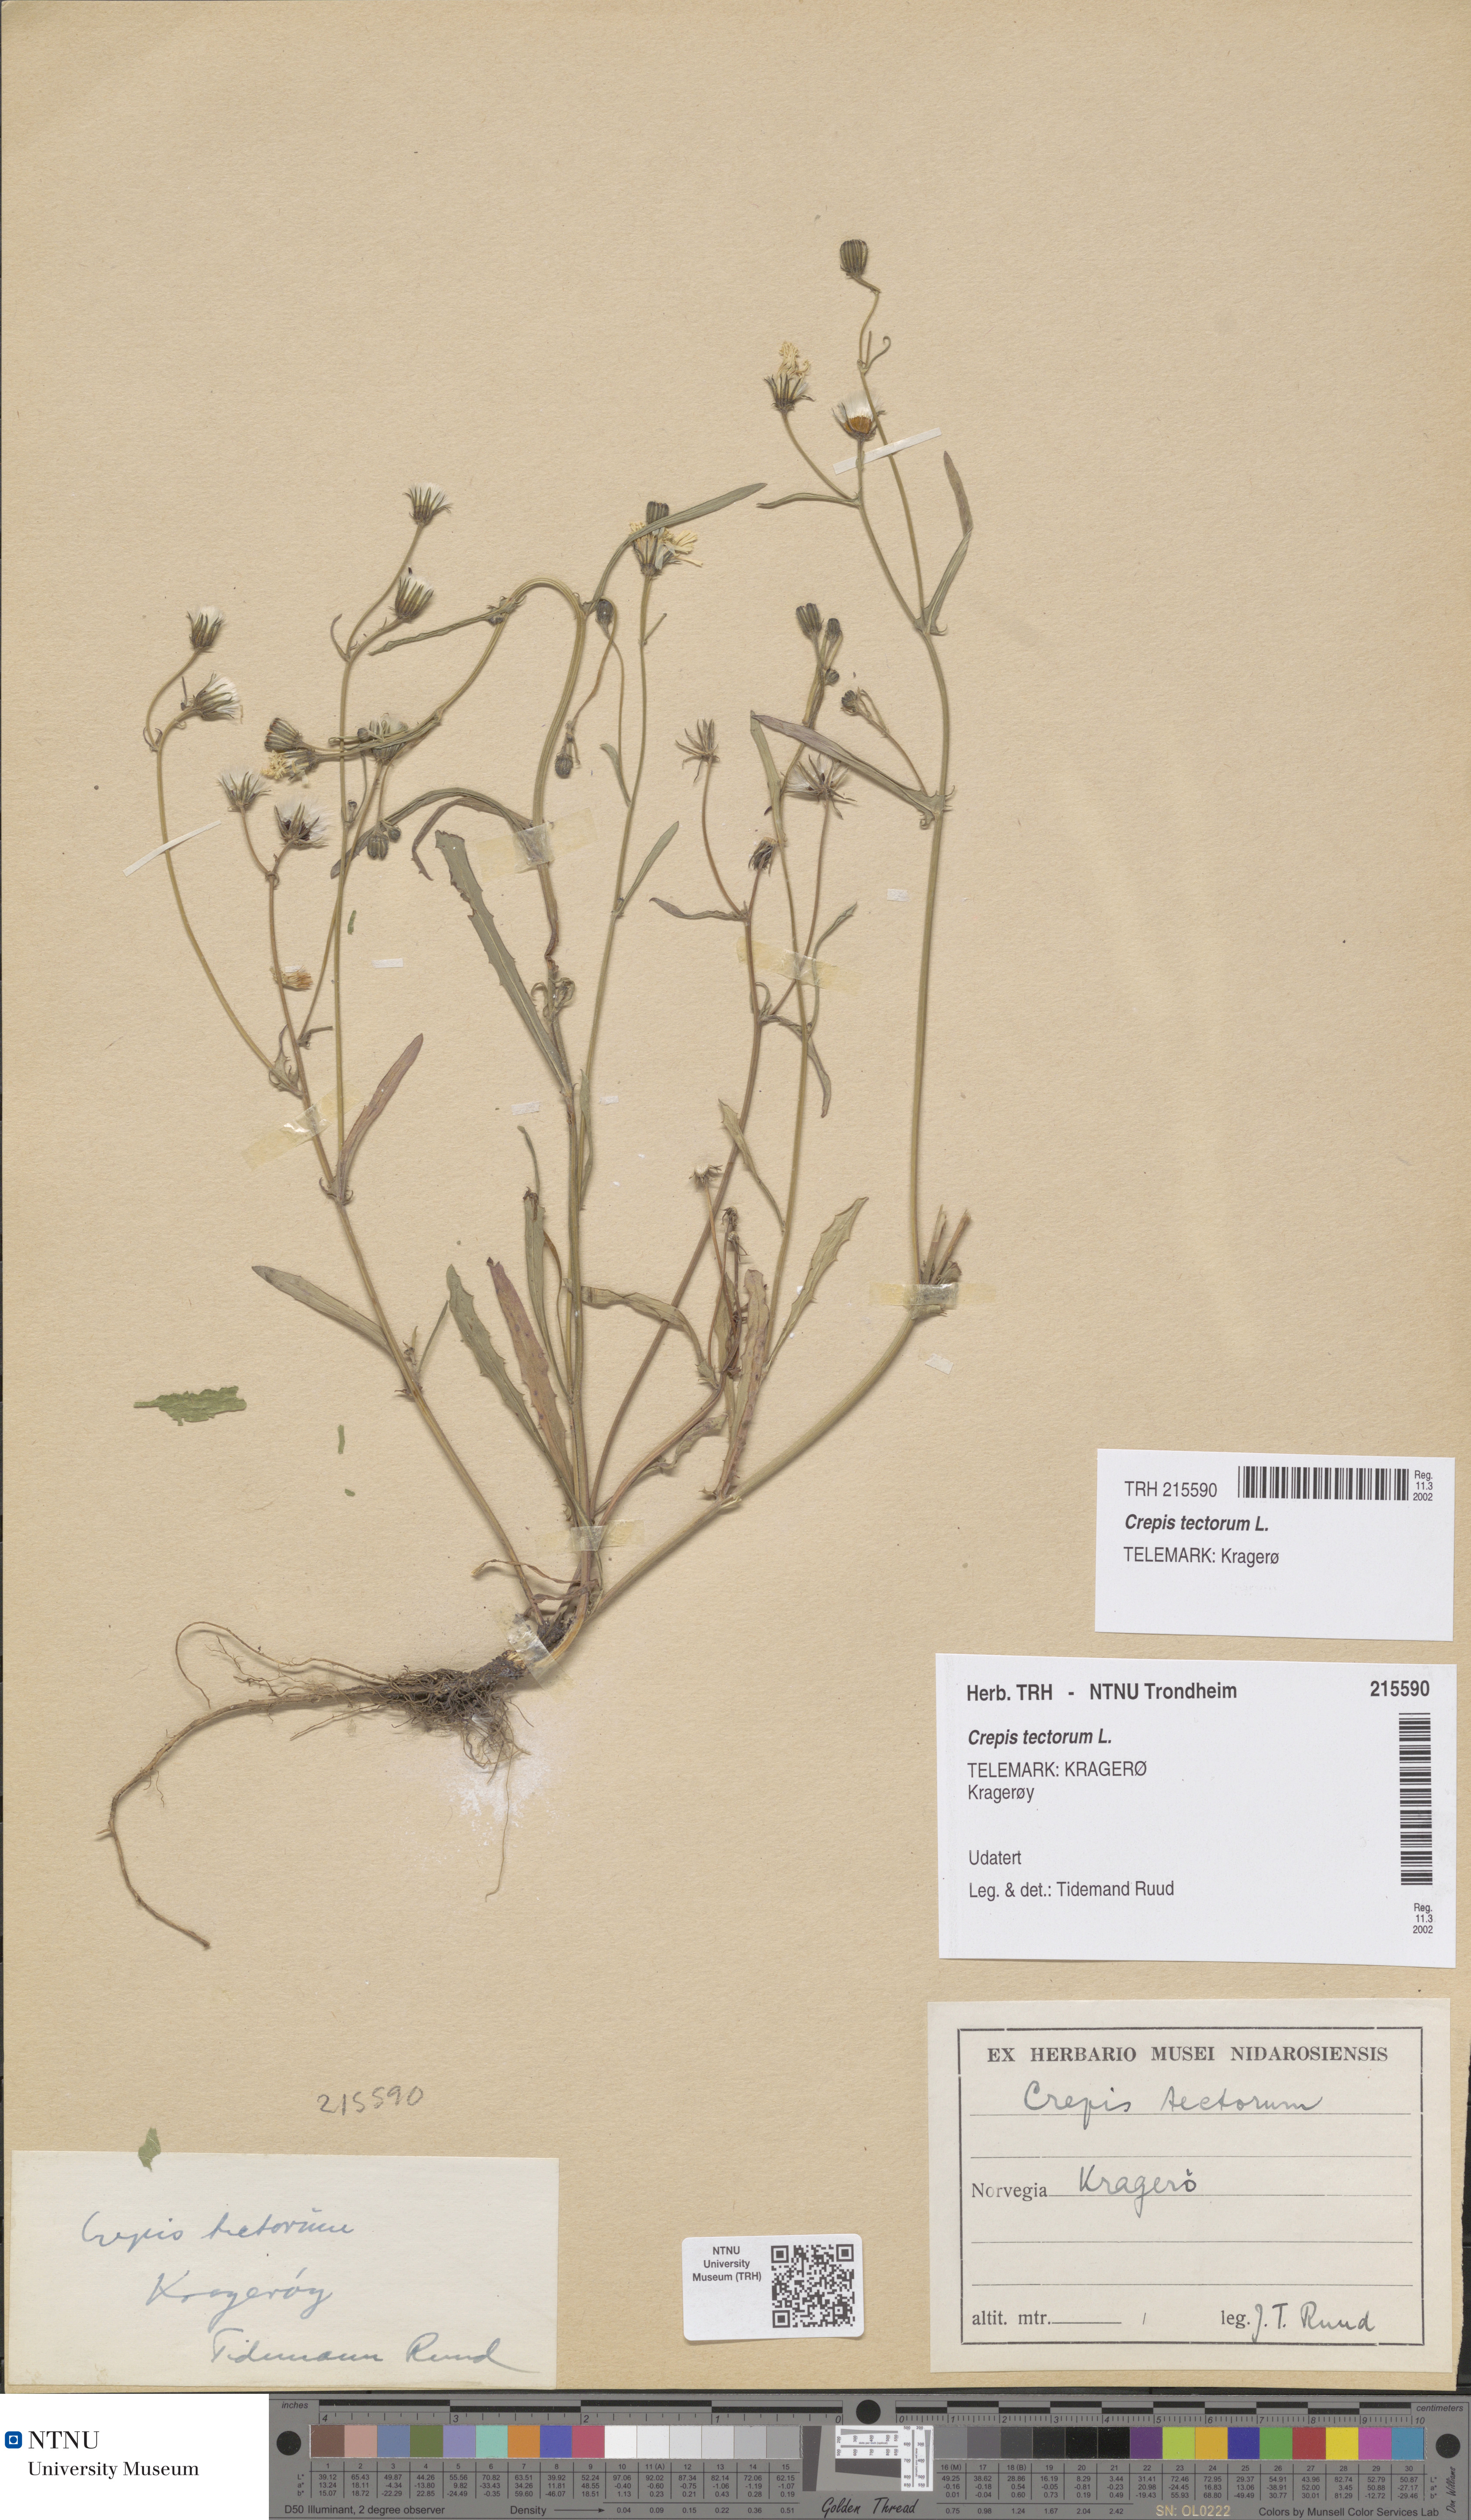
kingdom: Plantae
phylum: Tracheophyta
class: Magnoliopsida
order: Asterales
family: Asteraceae
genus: Crepis
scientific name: Crepis tectorum
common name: Narrow-leaved hawk's-beard
